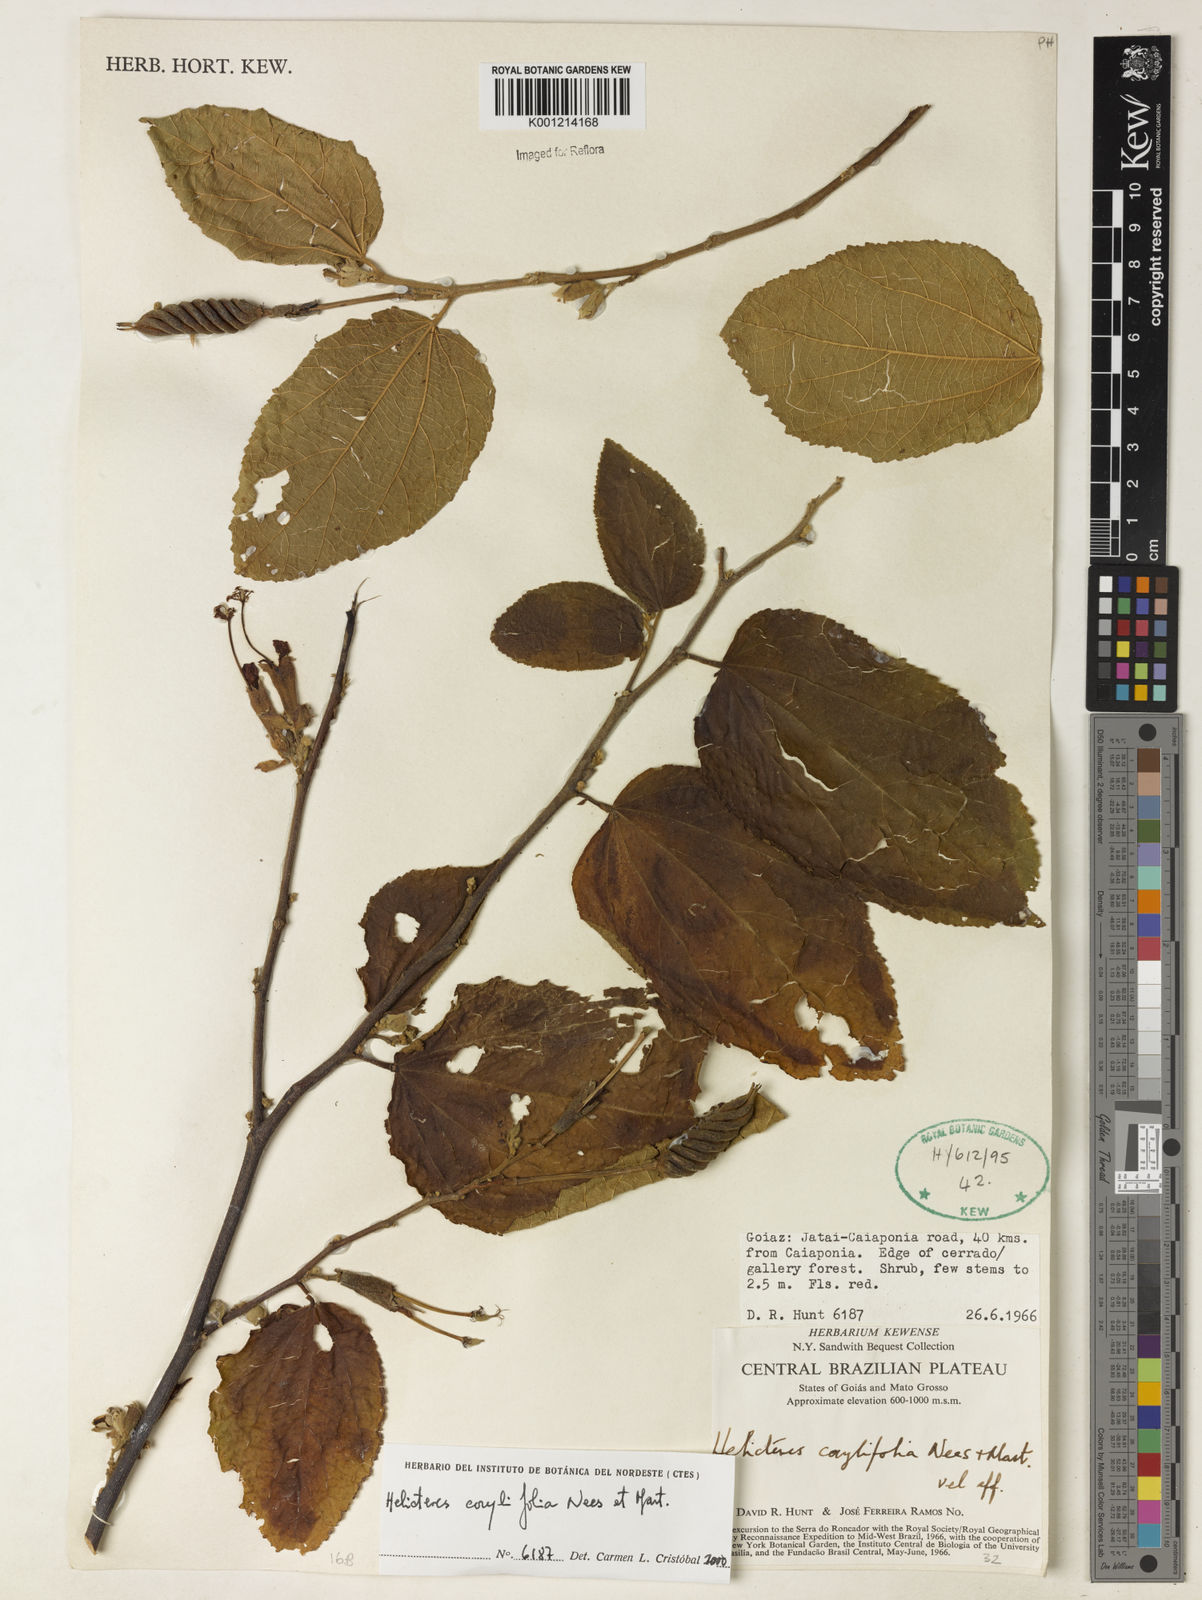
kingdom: Plantae
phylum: Tracheophyta
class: Magnoliopsida
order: Malvales
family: Malvaceae
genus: Helicteres
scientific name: Helicteres corylifolia
